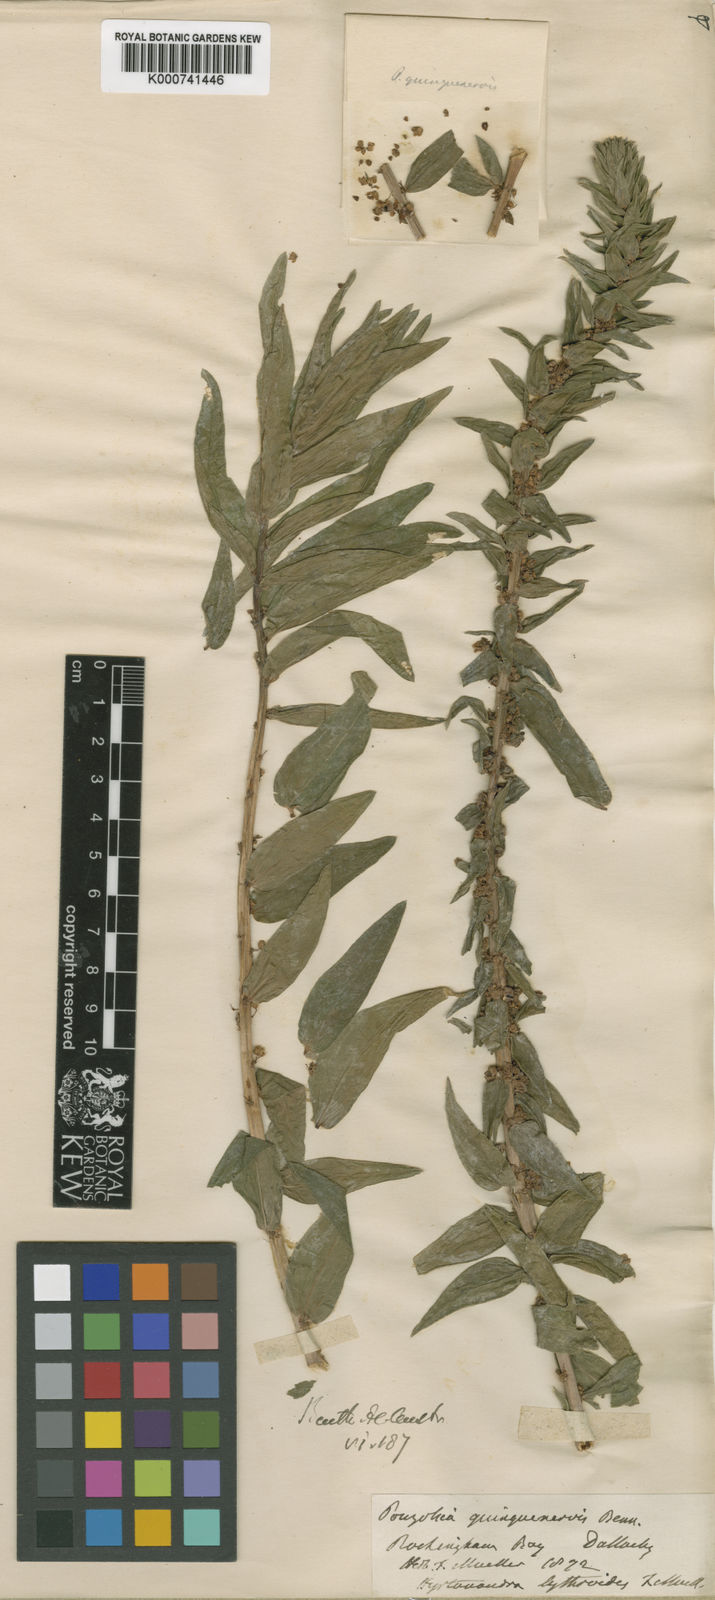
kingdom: Plantae
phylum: Tracheophyta
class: Magnoliopsida
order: Rosales
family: Urticaceae
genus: Gonostegia
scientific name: Gonostegia triandra
